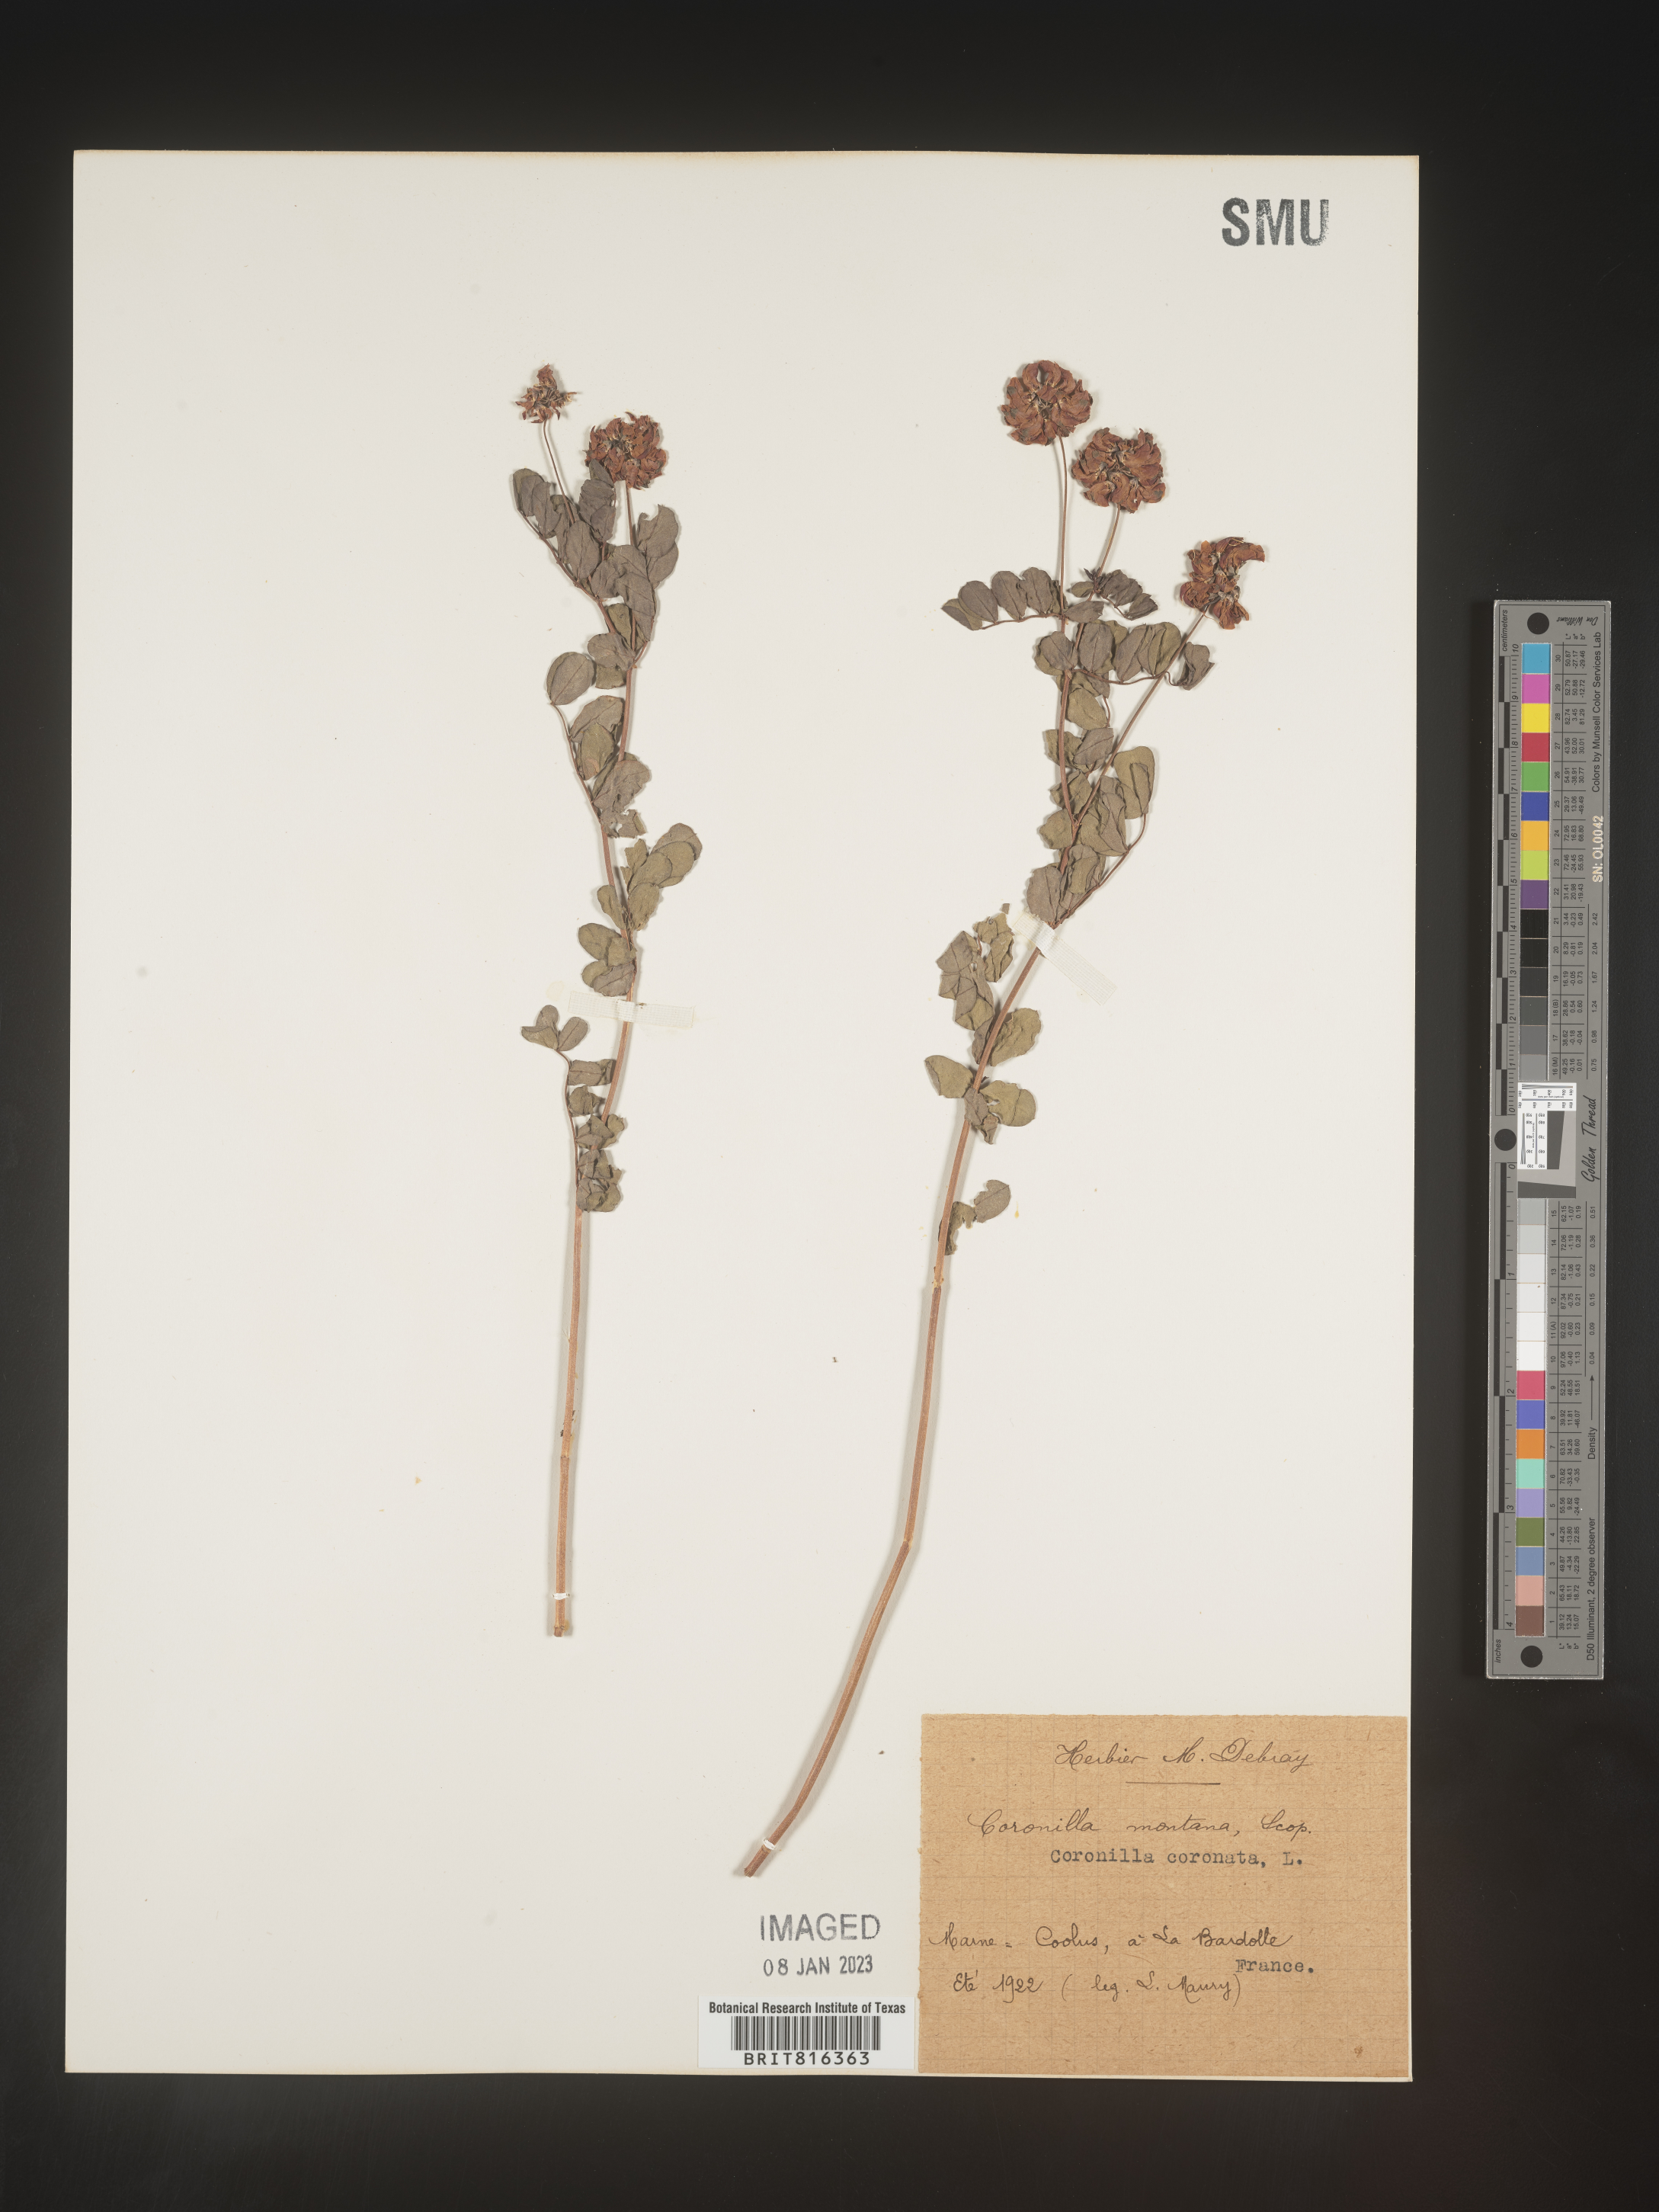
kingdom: Plantae
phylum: Tracheophyta
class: Magnoliopsida
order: Fabales
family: Fabaceae
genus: Coronilla
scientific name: Coronilla
